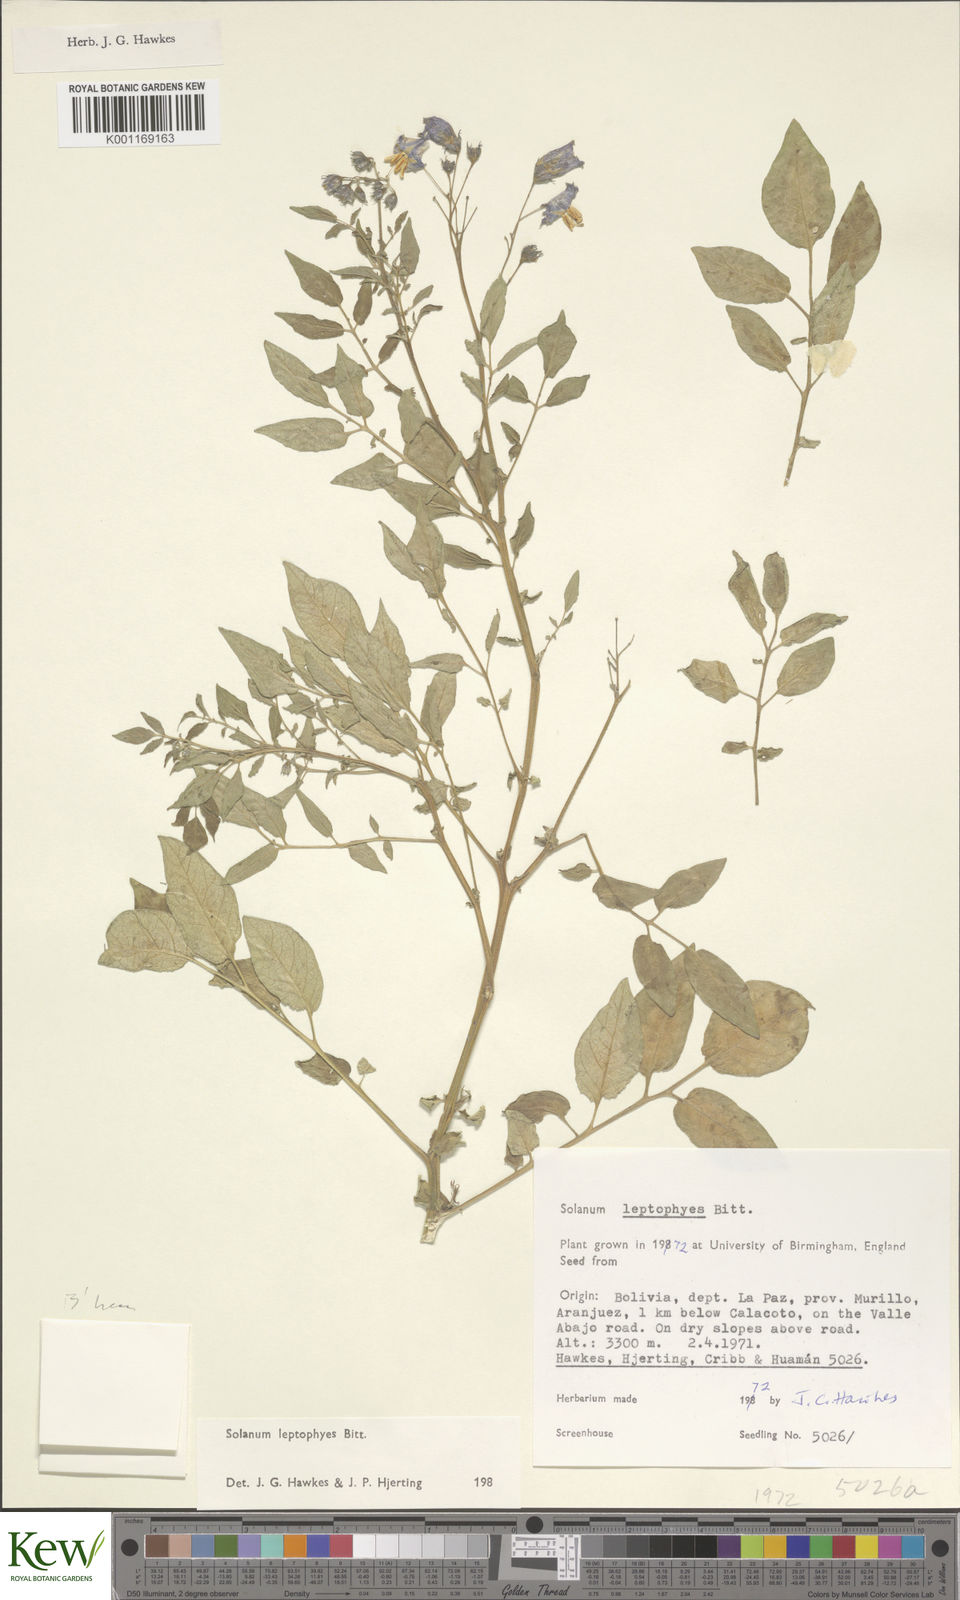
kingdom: Plantae
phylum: Tracheophyta
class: Magnoliopsida
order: Solanales
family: Solanaceae
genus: Solanum
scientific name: Solanum brevicaule
